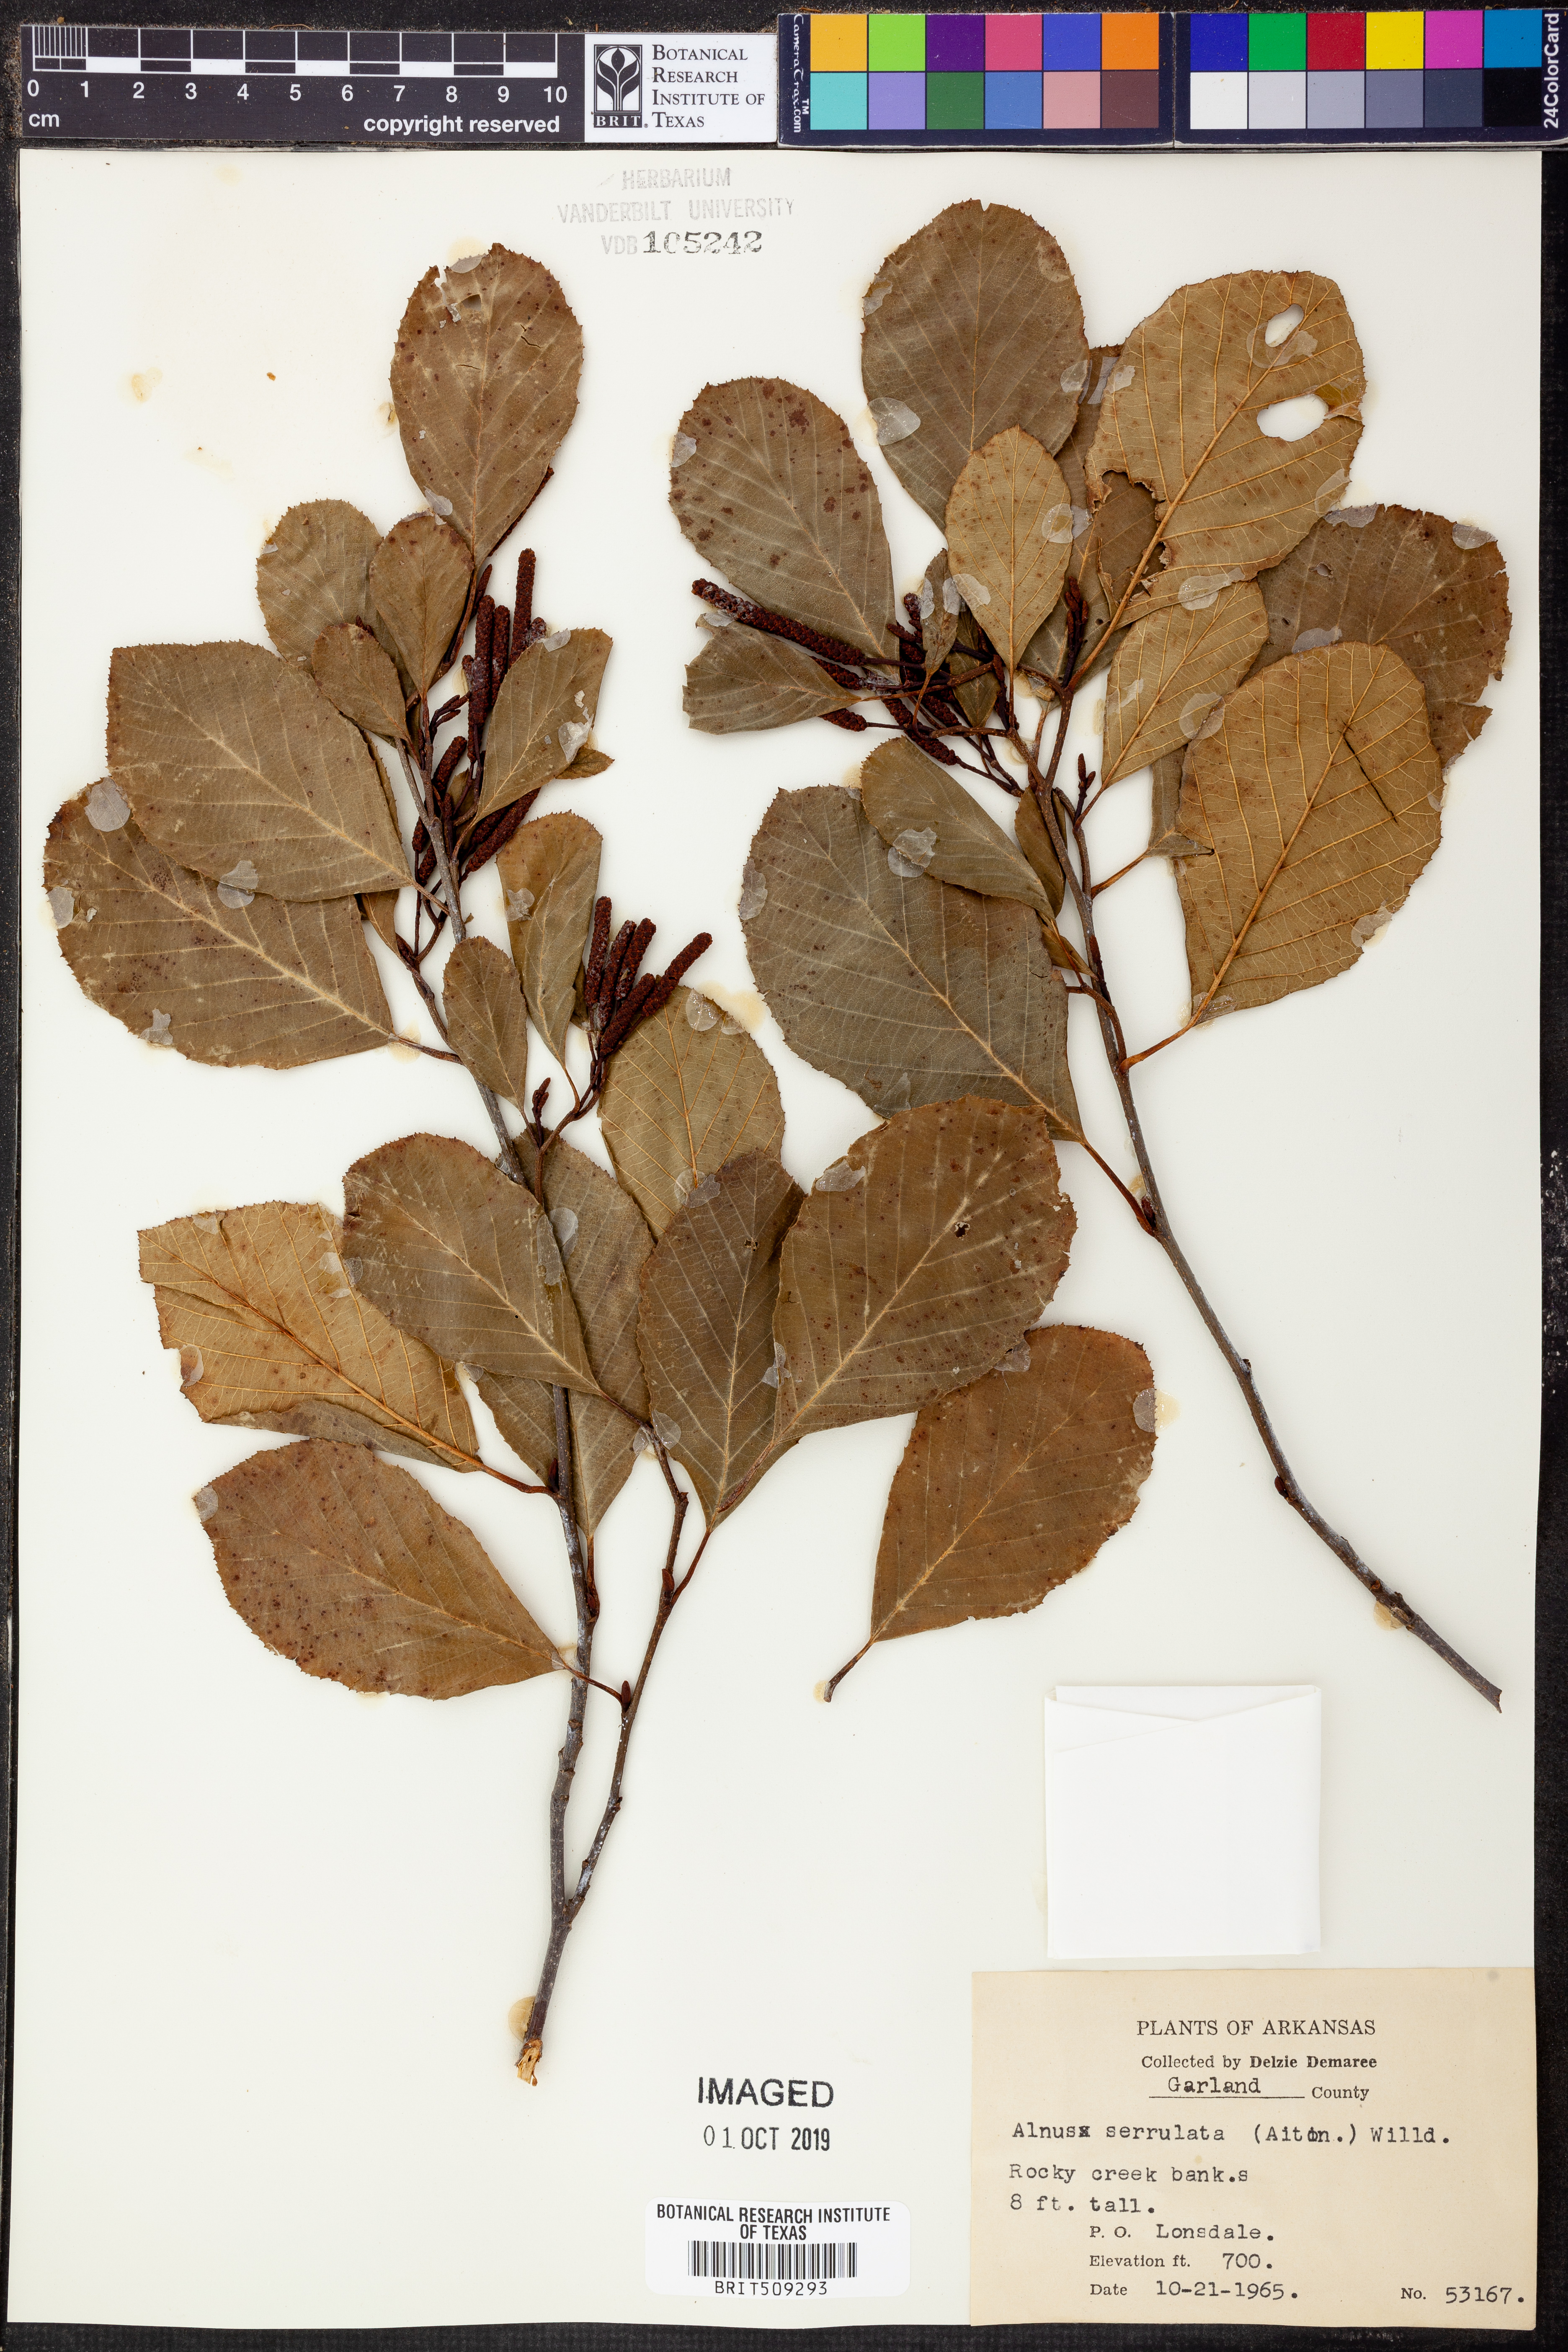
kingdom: Plantae
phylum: Tracheophyta
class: Magnoliopsida
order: Fagales
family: Betulaceae
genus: Alnus
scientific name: Alnus serrulata
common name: Hazel alder
